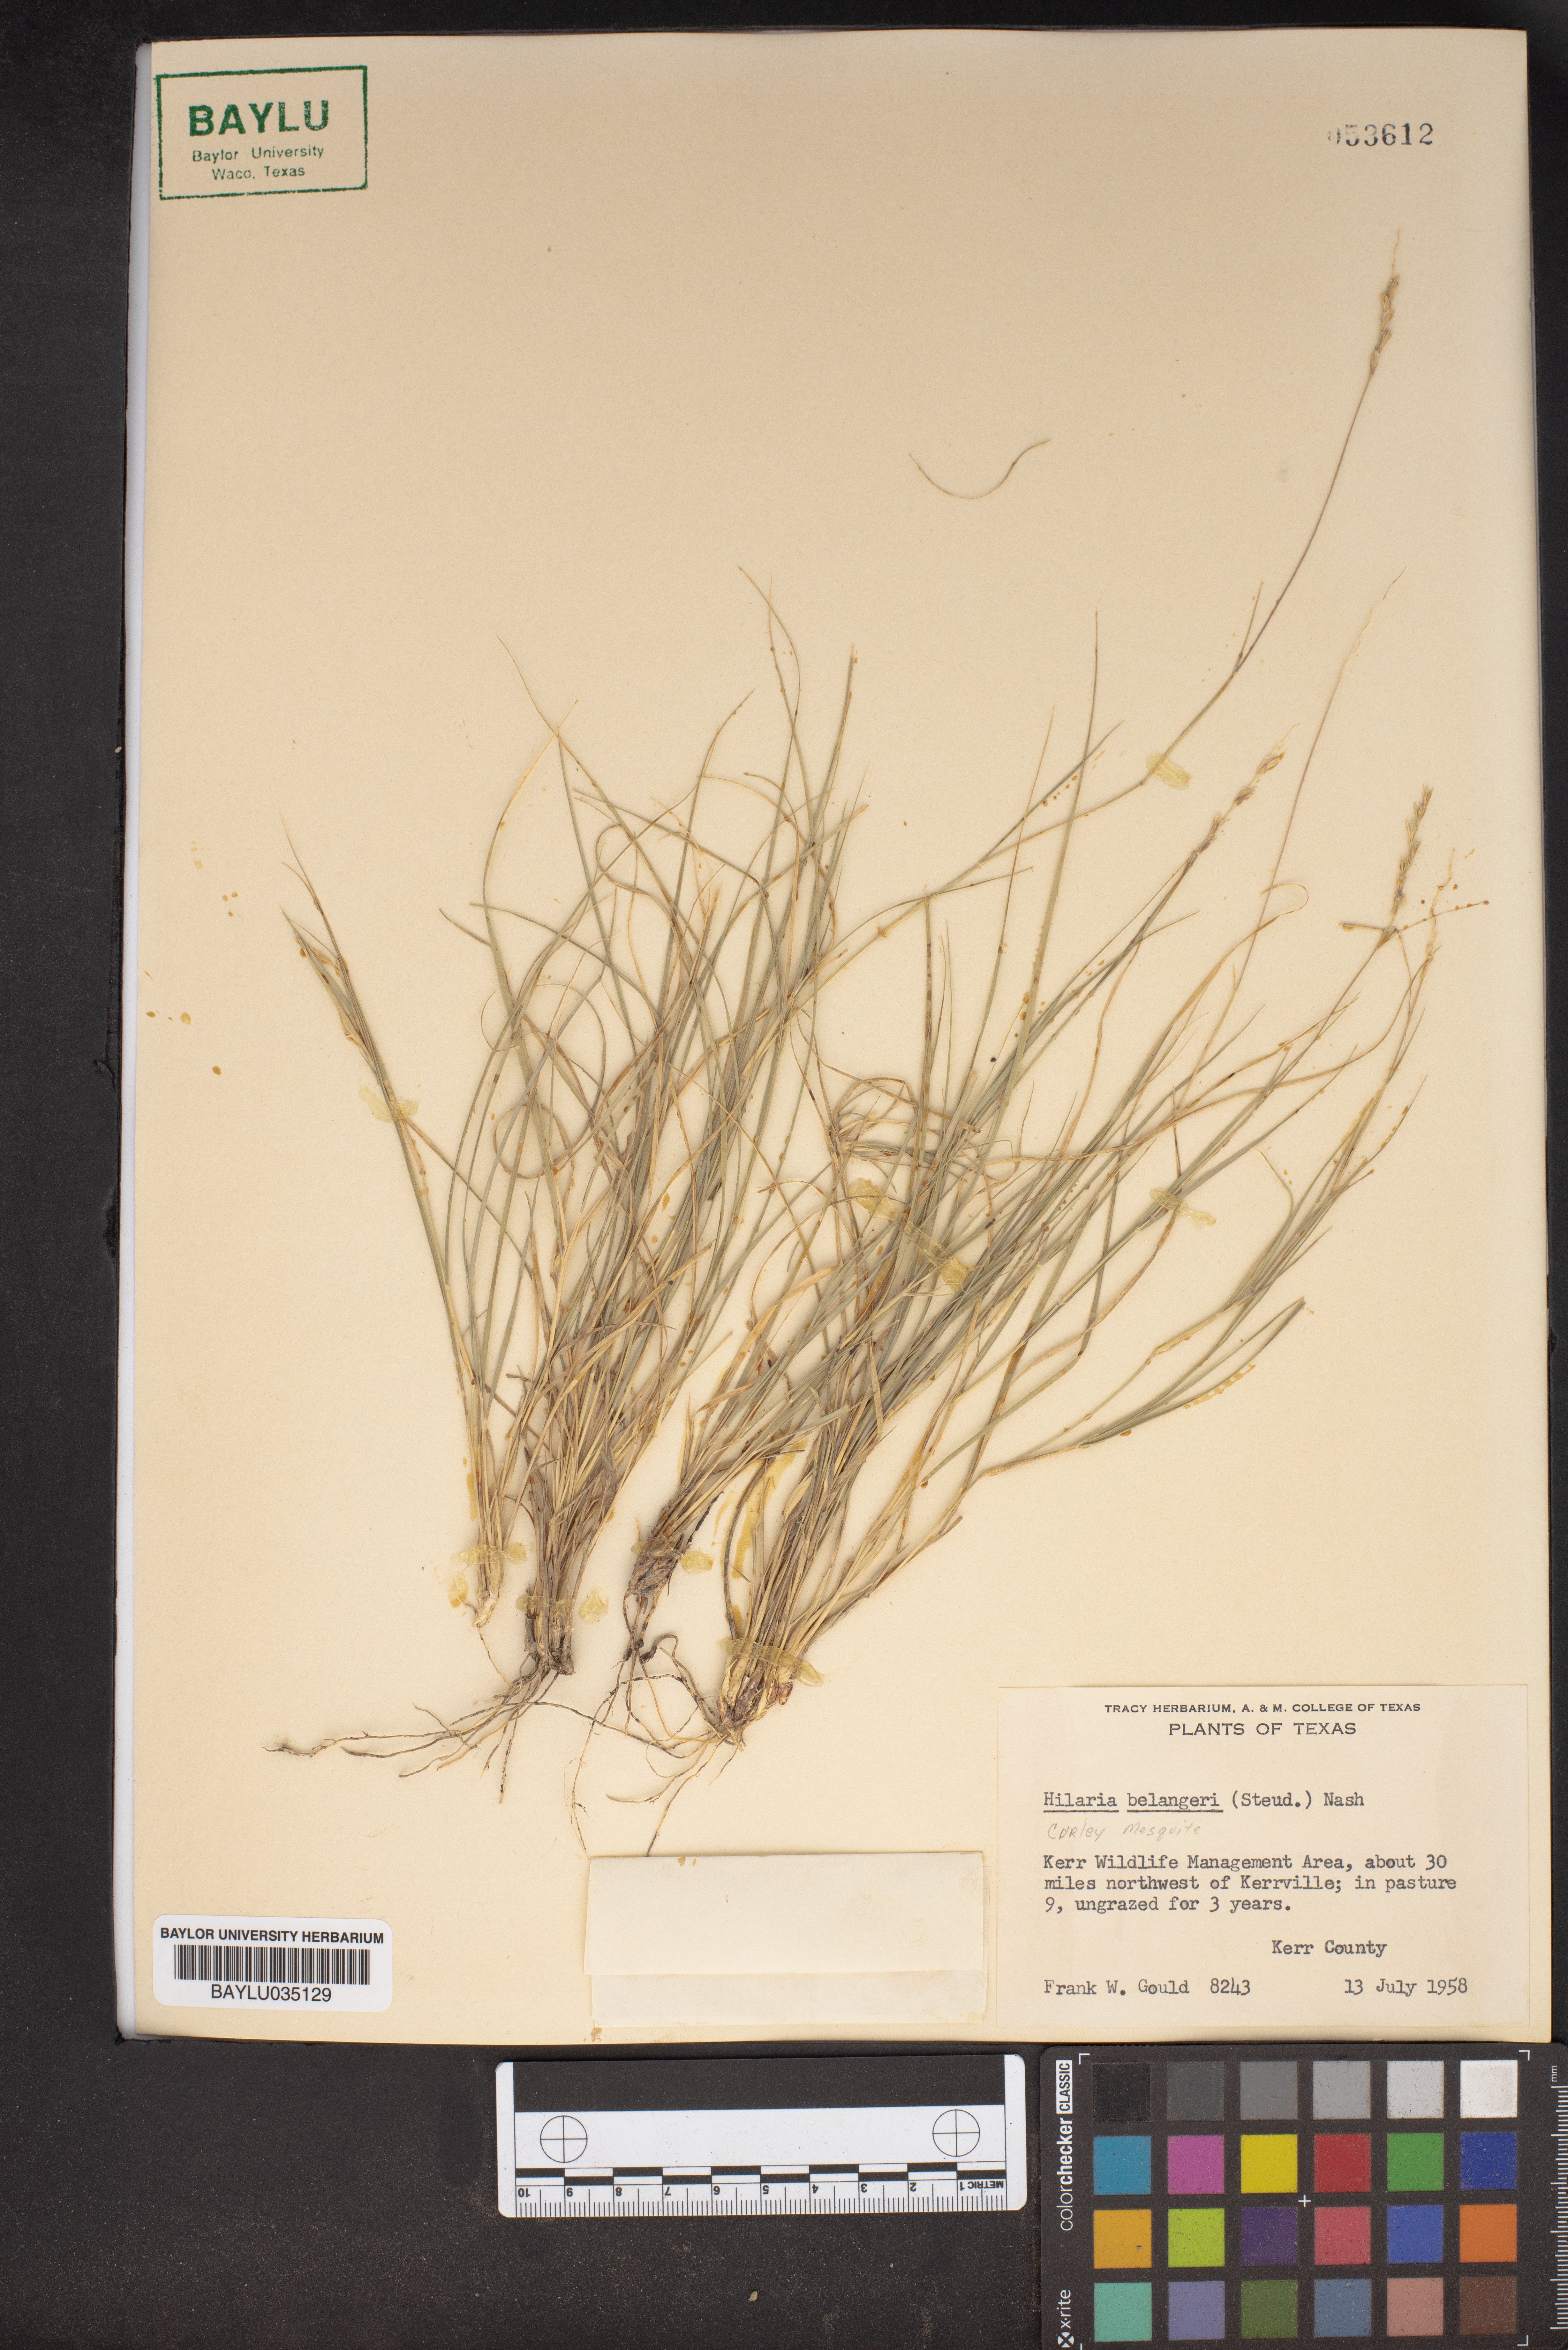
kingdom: Plantae
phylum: Tracheophyta
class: Liliopsida
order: Poales
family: Poaceae
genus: Hilaria
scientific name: Hilaria belangeri
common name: Curly-mesquite
